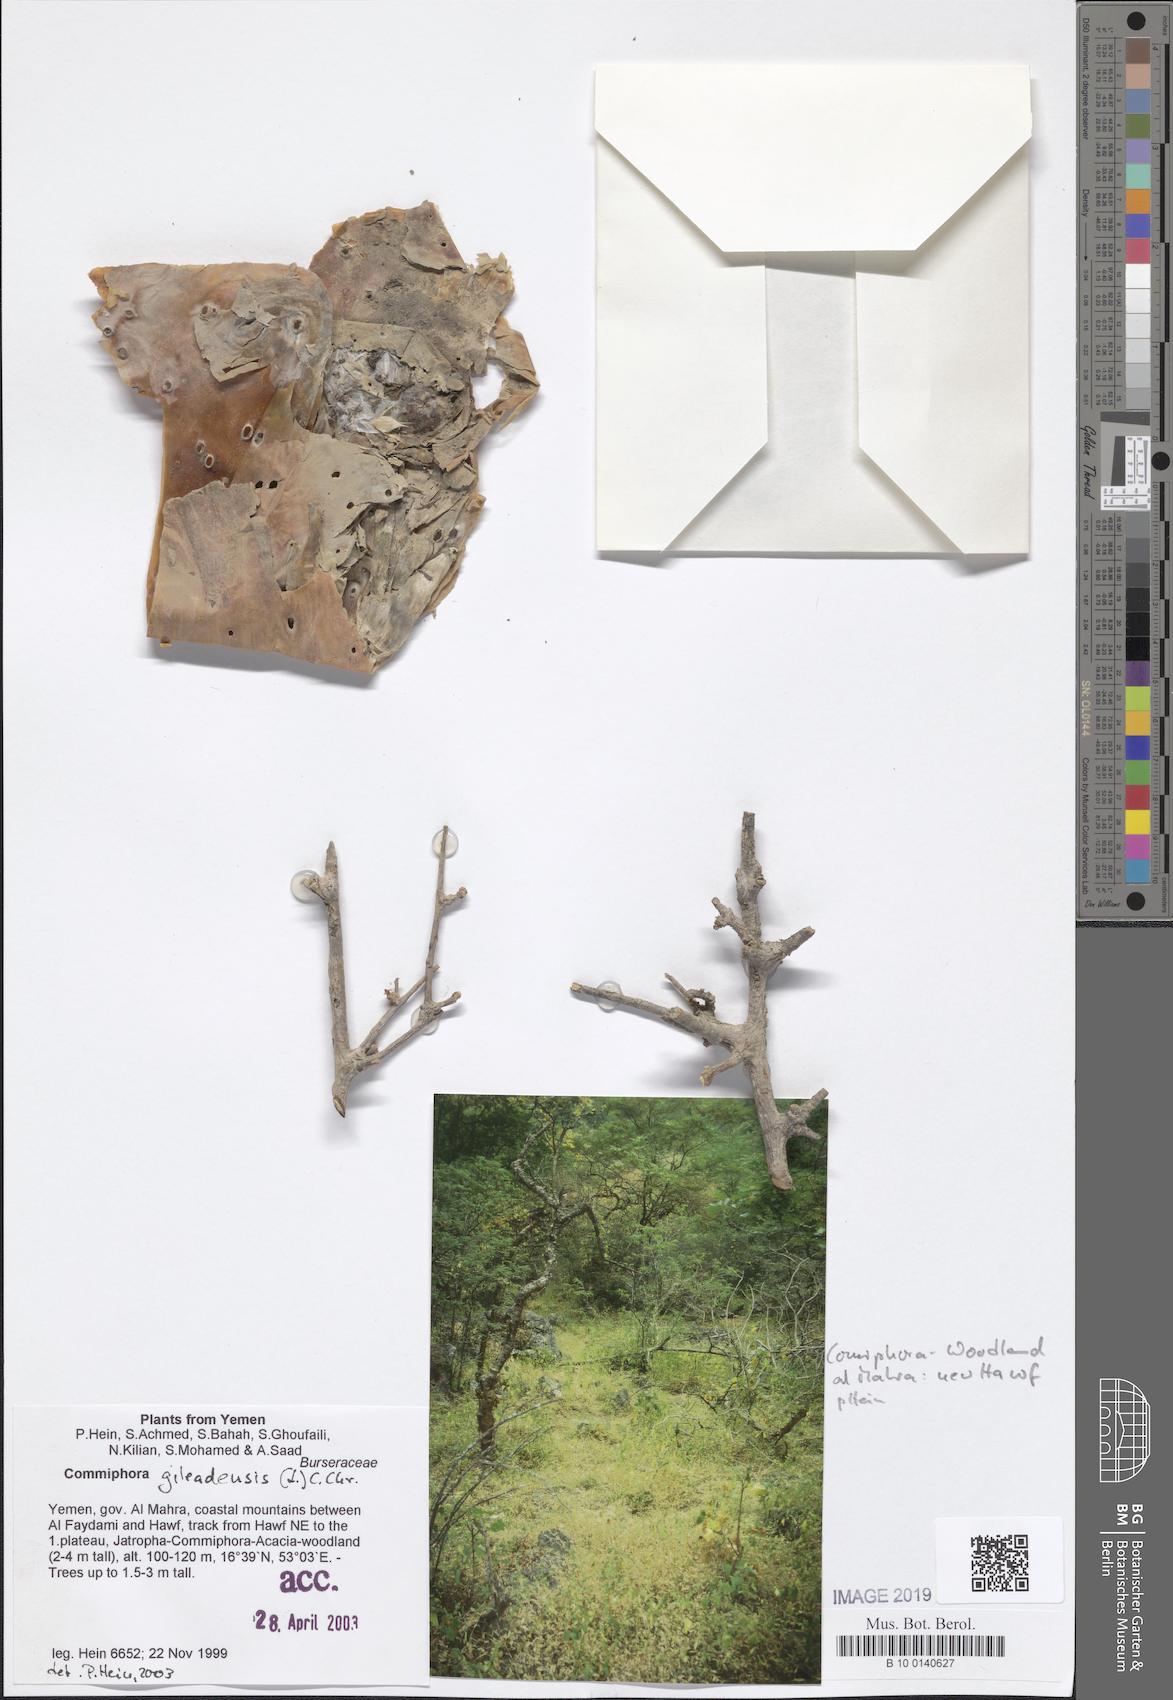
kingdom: Plantae
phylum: Tracheophyta
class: Magnoliopsida
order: Sapindales
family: Burseraceae
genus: Commiphora
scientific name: Commiphora gileadensis
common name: Balm-of-gilead
